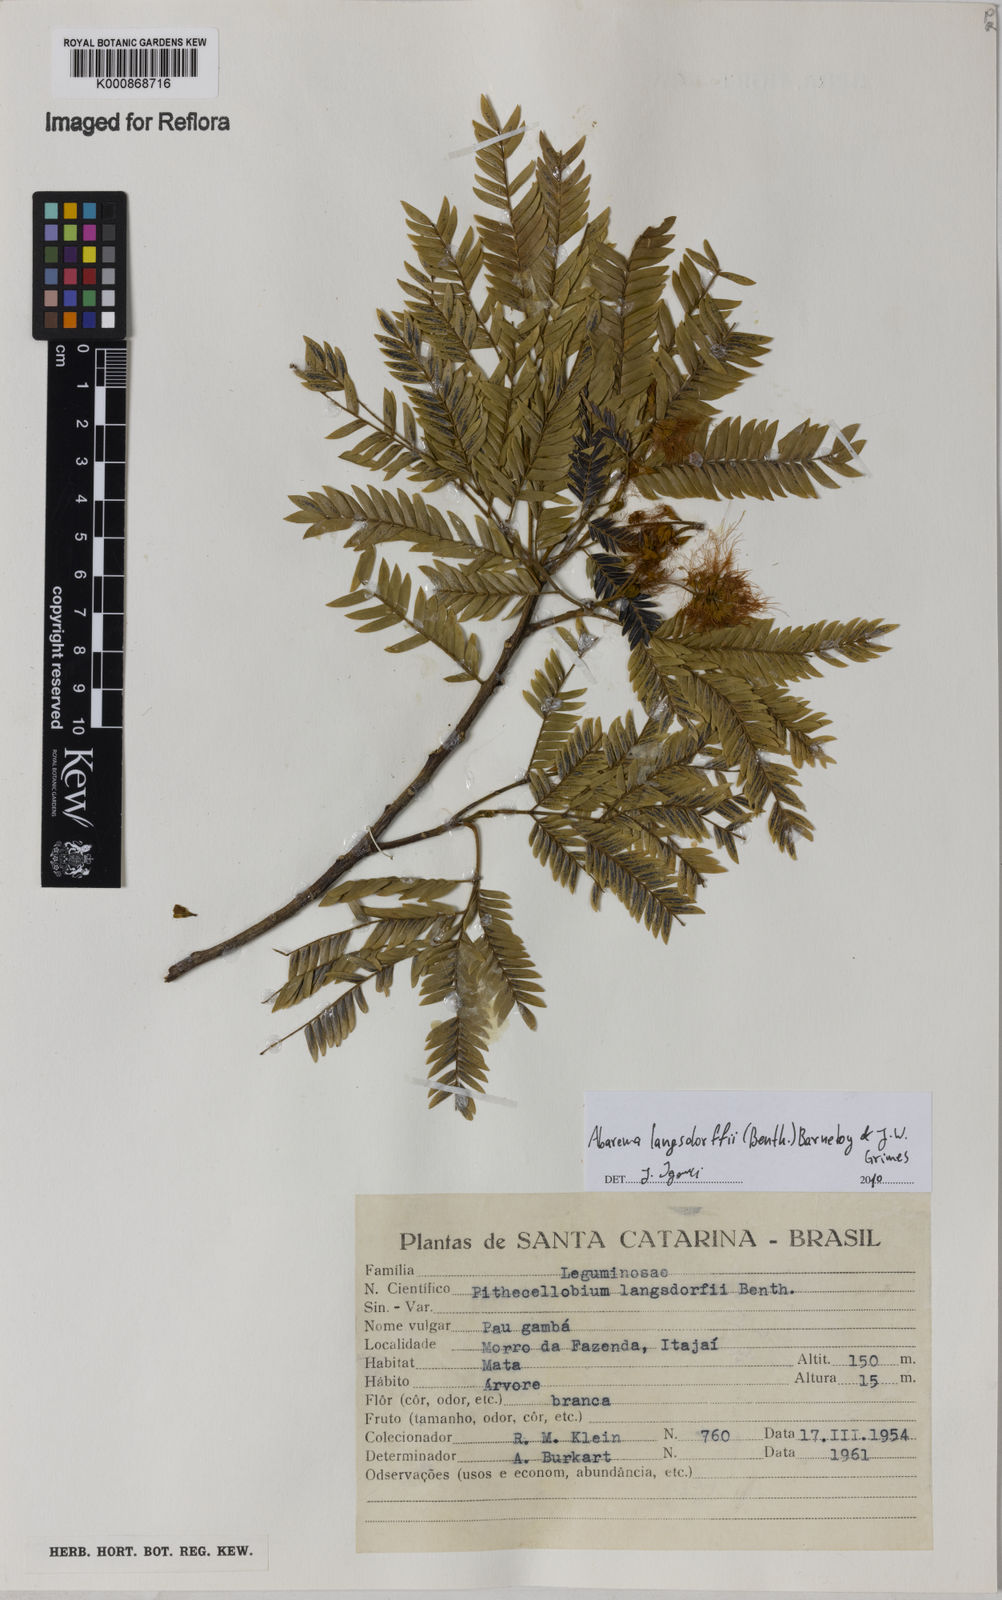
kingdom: Plantae
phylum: Tracheophyta
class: Magnoliopsida
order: Fabales
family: Fabaceae
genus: Jupunba
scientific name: Jupunba langsdorffii
